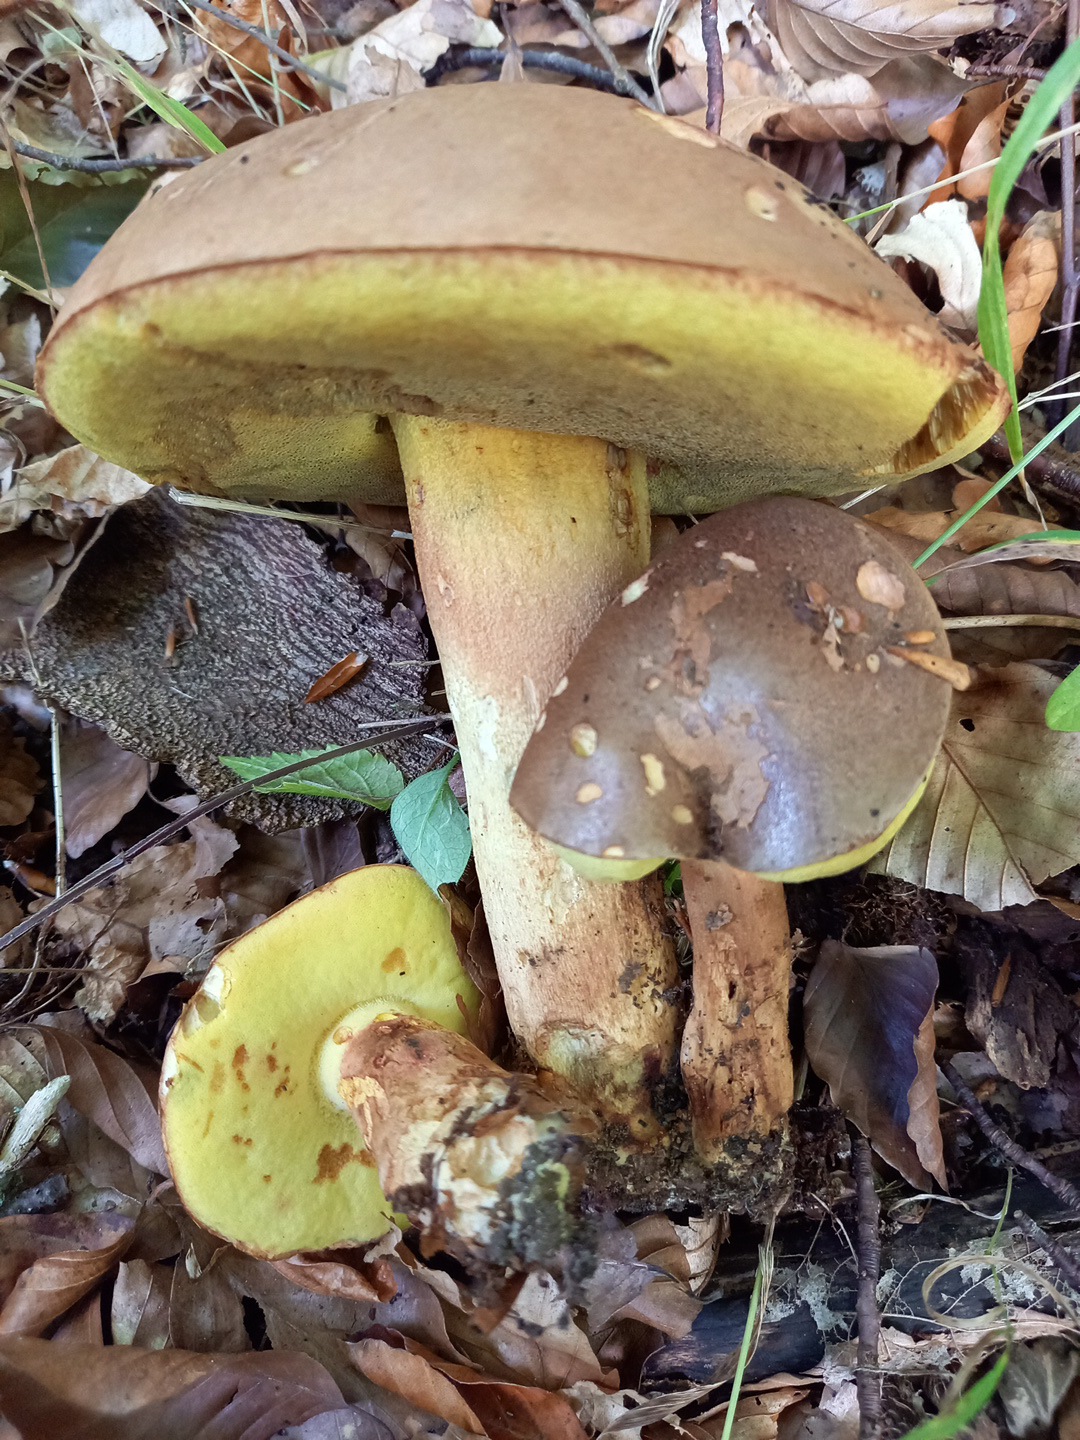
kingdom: Fungi
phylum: Basidiomycota
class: Agaricomycetes
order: Boletales
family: Boletaceae
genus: Xerocomus
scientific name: Xerocomus
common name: filtrørhat
